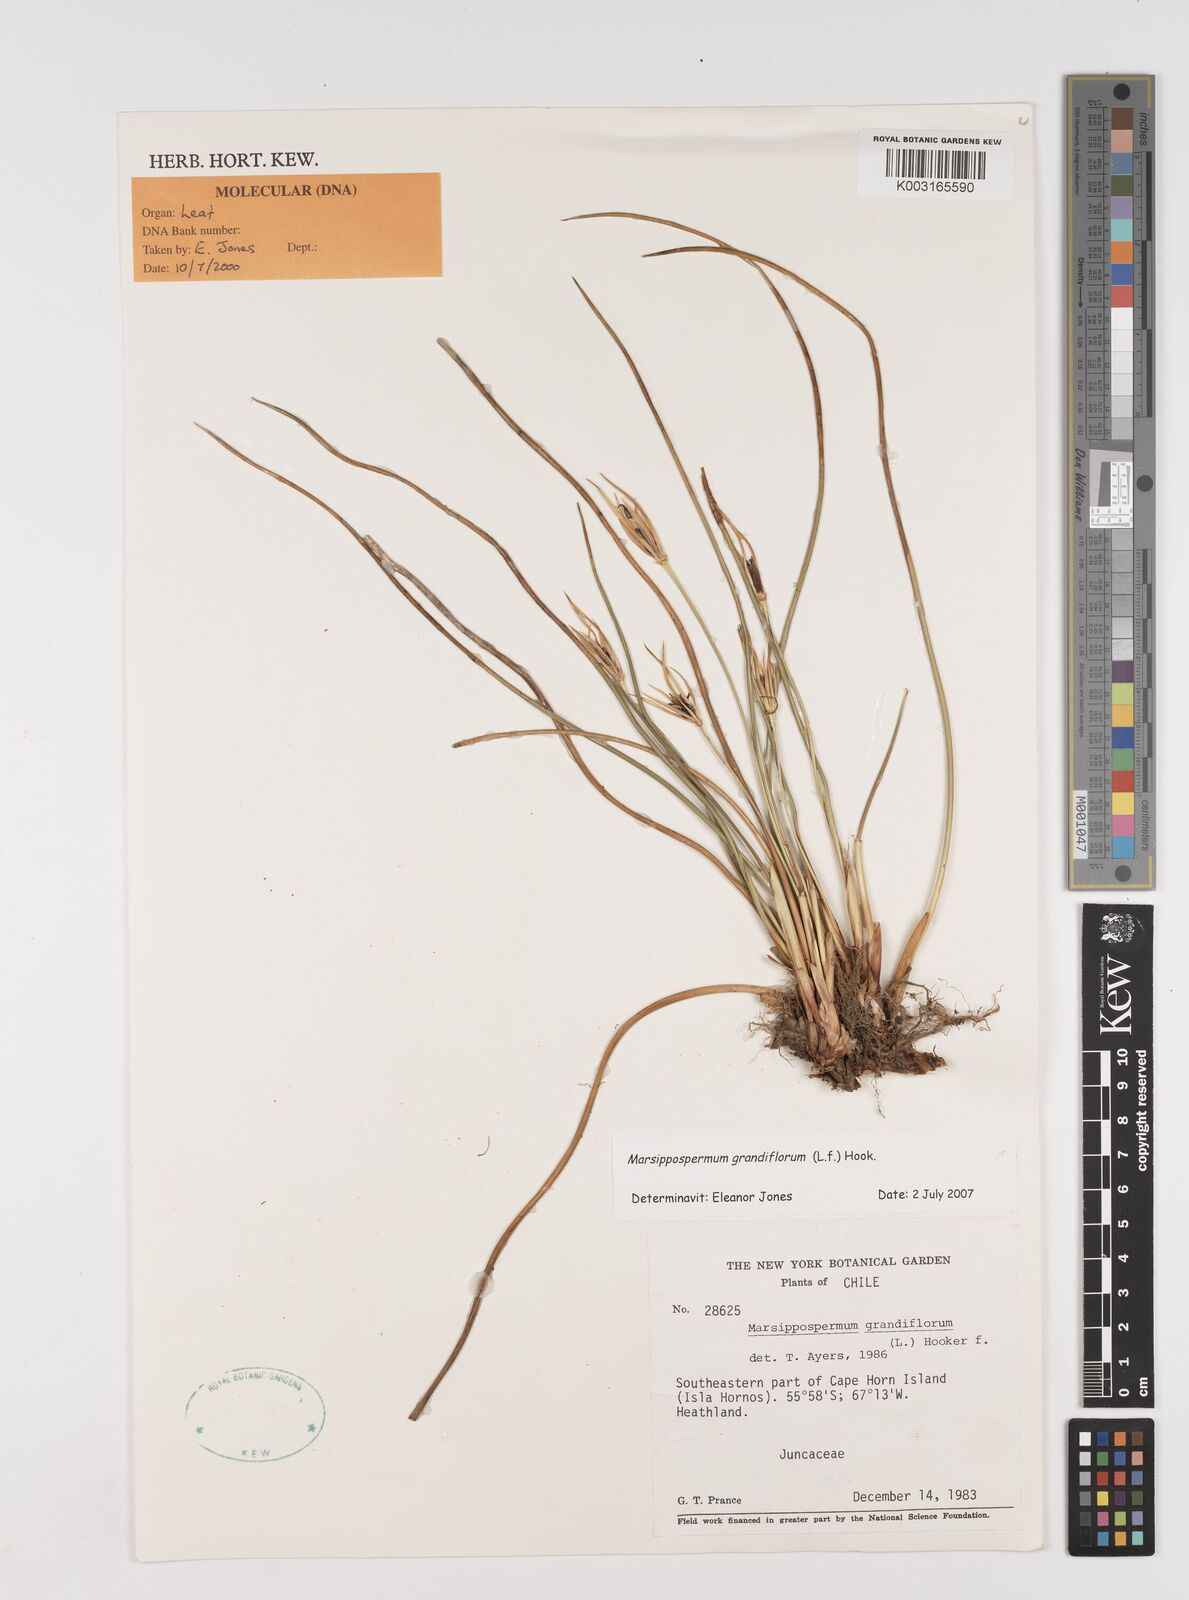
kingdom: Plantae
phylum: Tracheophyta
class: Liliopsida
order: Poales
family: Juncaceae
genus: Marsippospermum
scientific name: Marsippospermum grandiflorum
